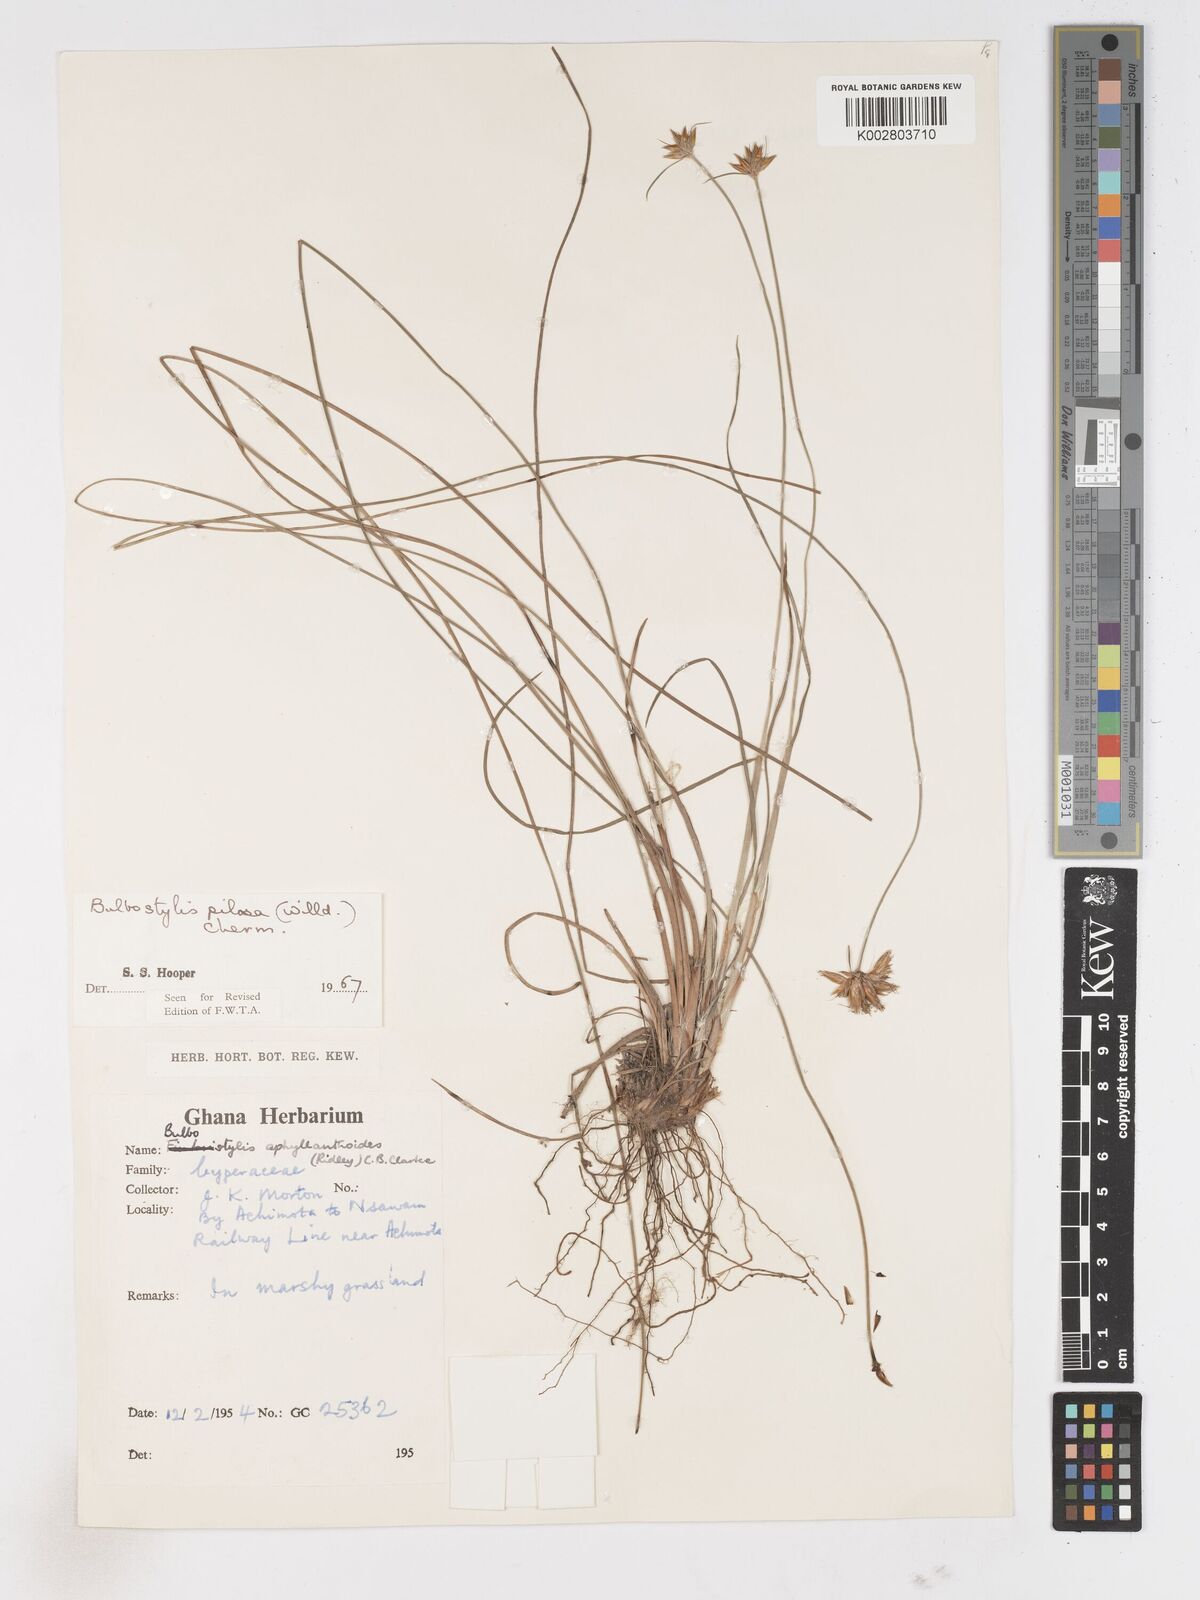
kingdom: Plantae
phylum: Tracheophyta
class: Liliopsida
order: Poales
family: Cyperaceae
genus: Bulbostylis
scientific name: Bulbostylis pilosa
